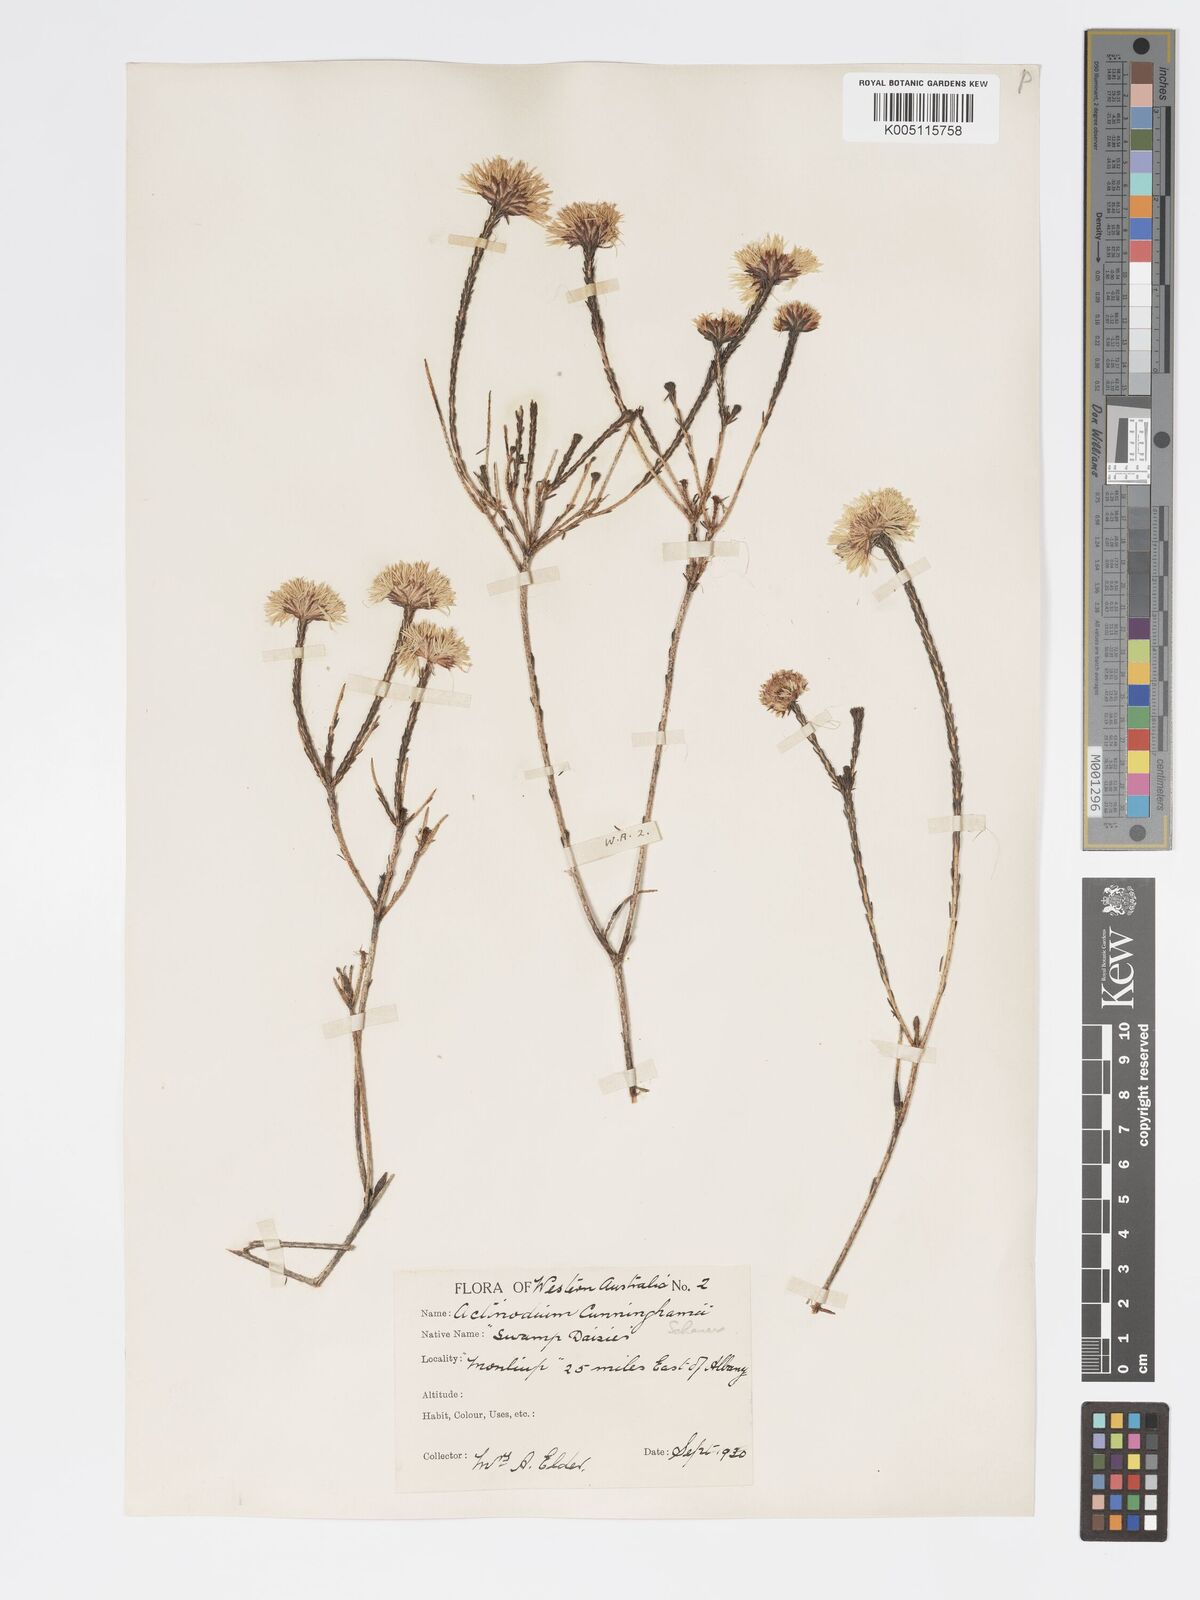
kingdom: Plantae
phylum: Tracheophyta
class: Magnoliopsida
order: Myrtales
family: Myrtaceae
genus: Actinodium
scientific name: Actinodium cunninghamii
